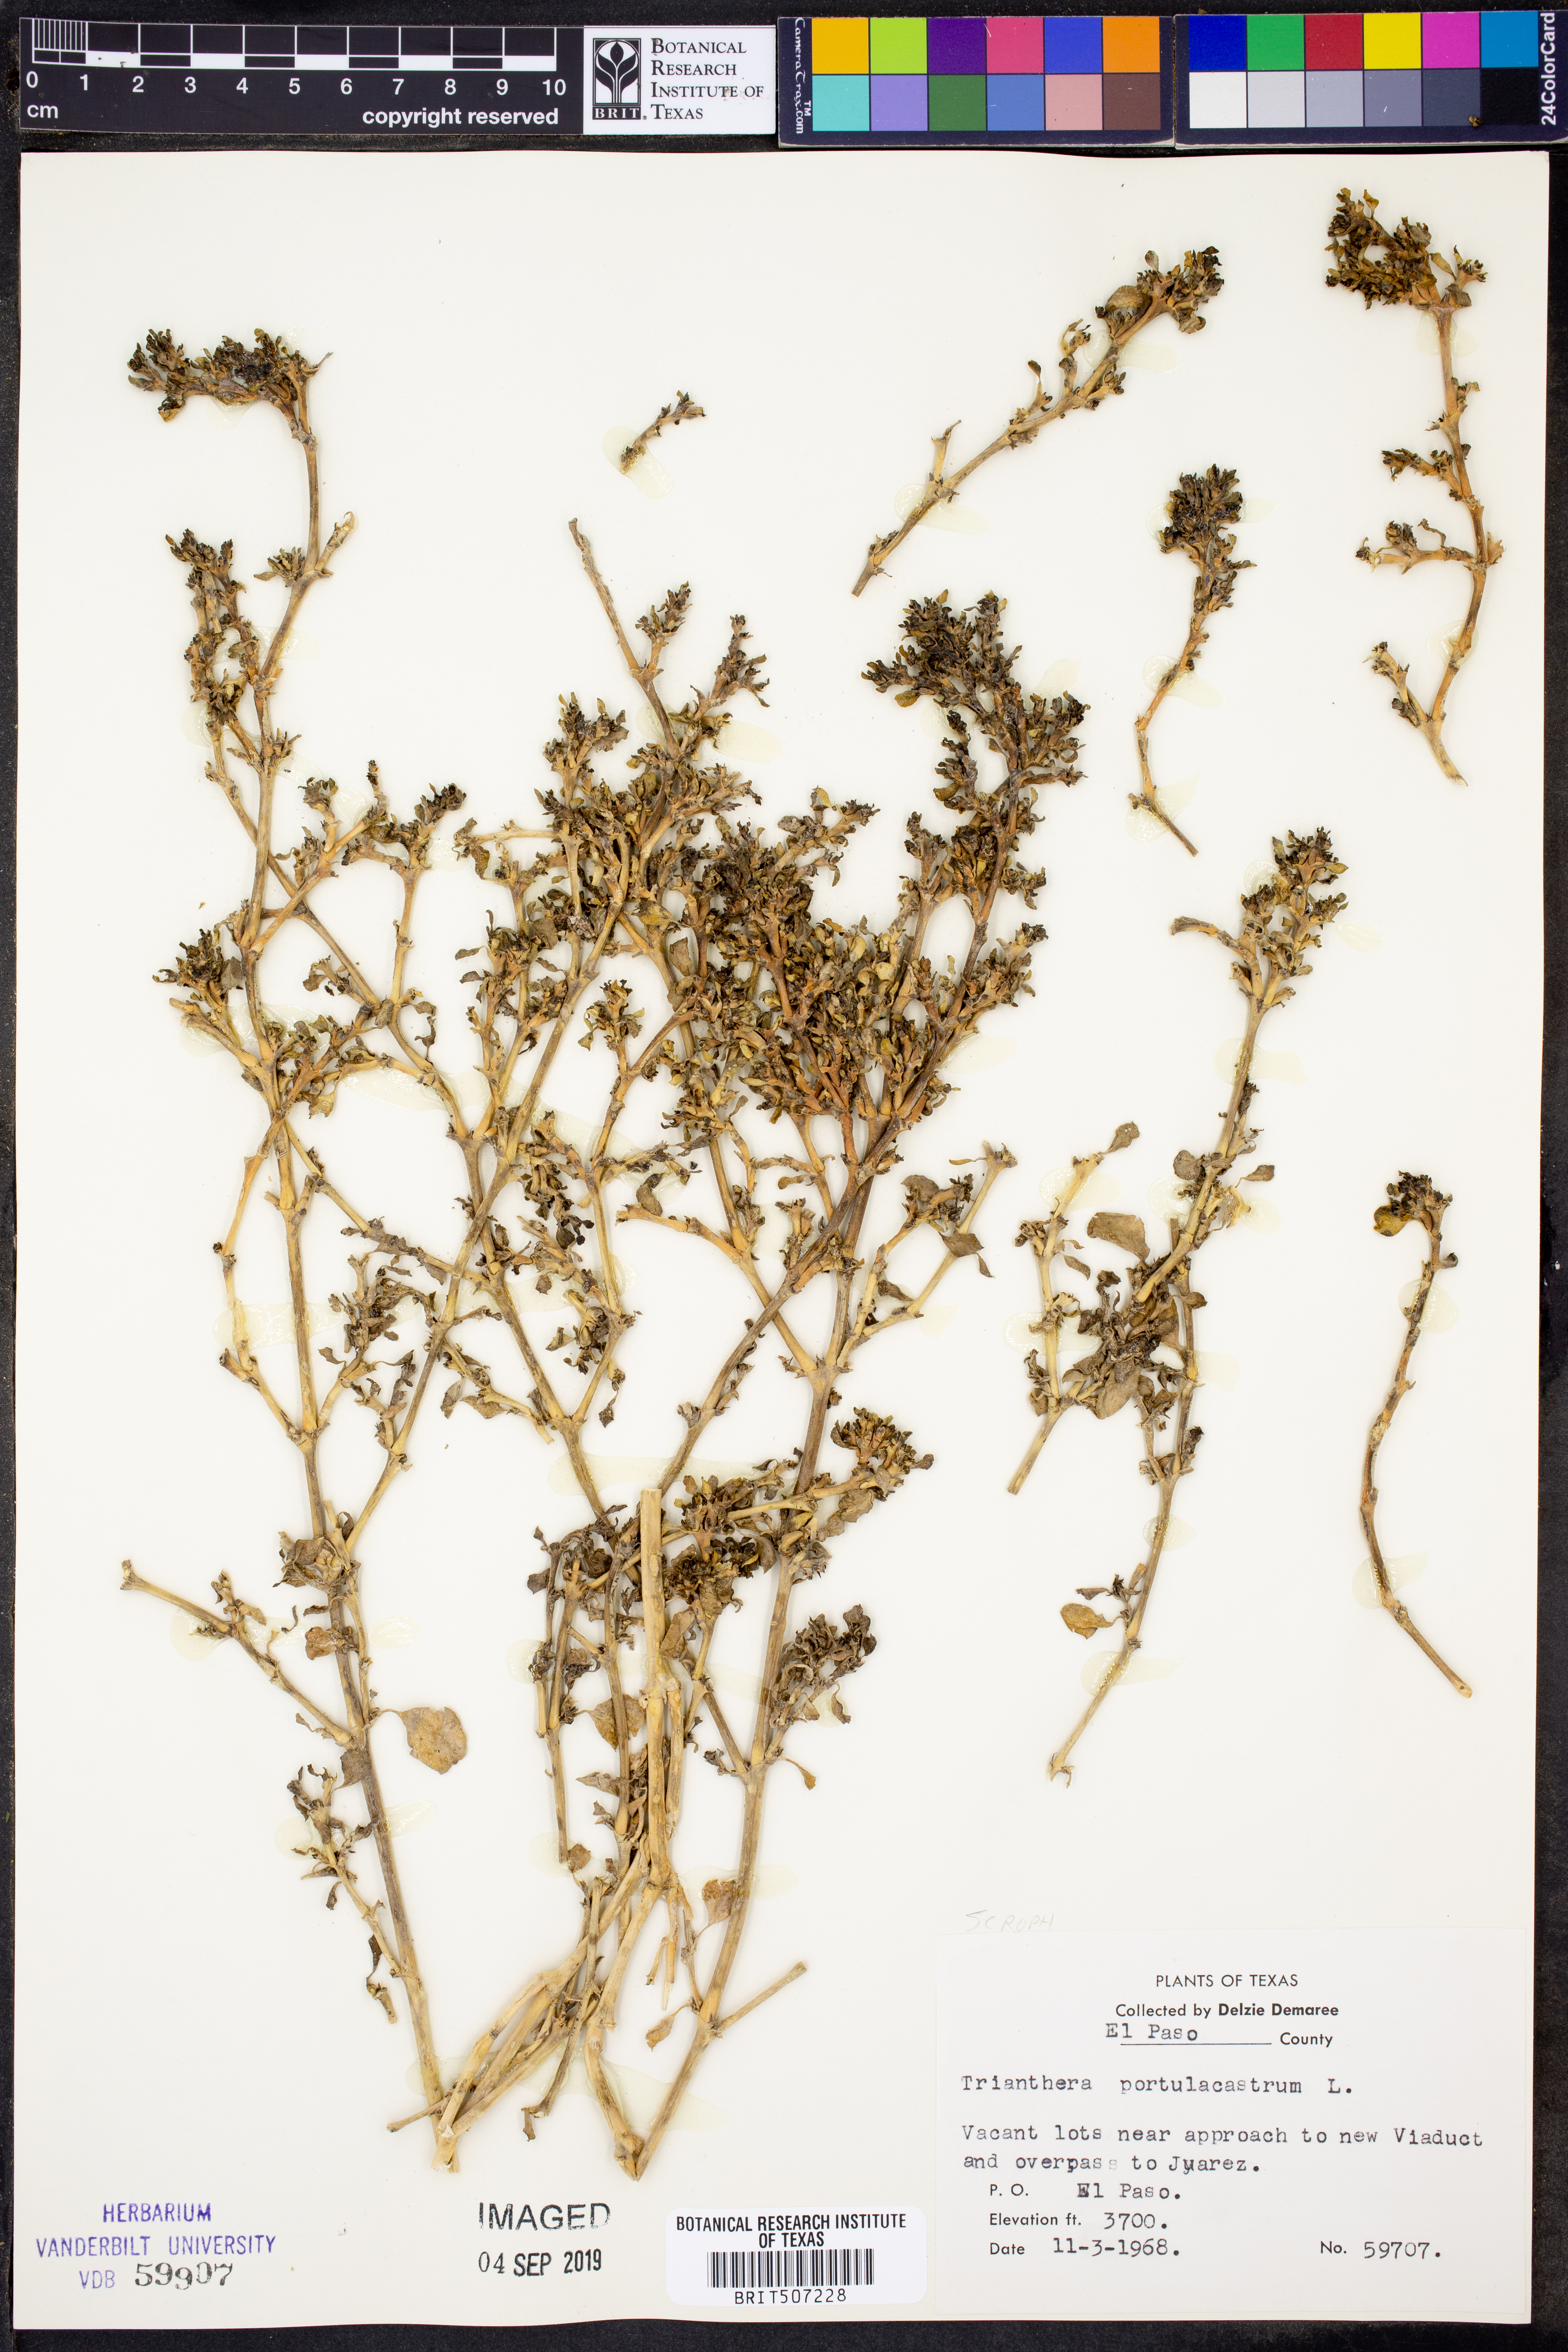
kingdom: Plantae
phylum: Tracheophyta
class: Magnoliopsida
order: Caryophyllales
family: Aizoaceae
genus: Trianthema
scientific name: Trianthema portulacastrum
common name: Desert horsepurslane
